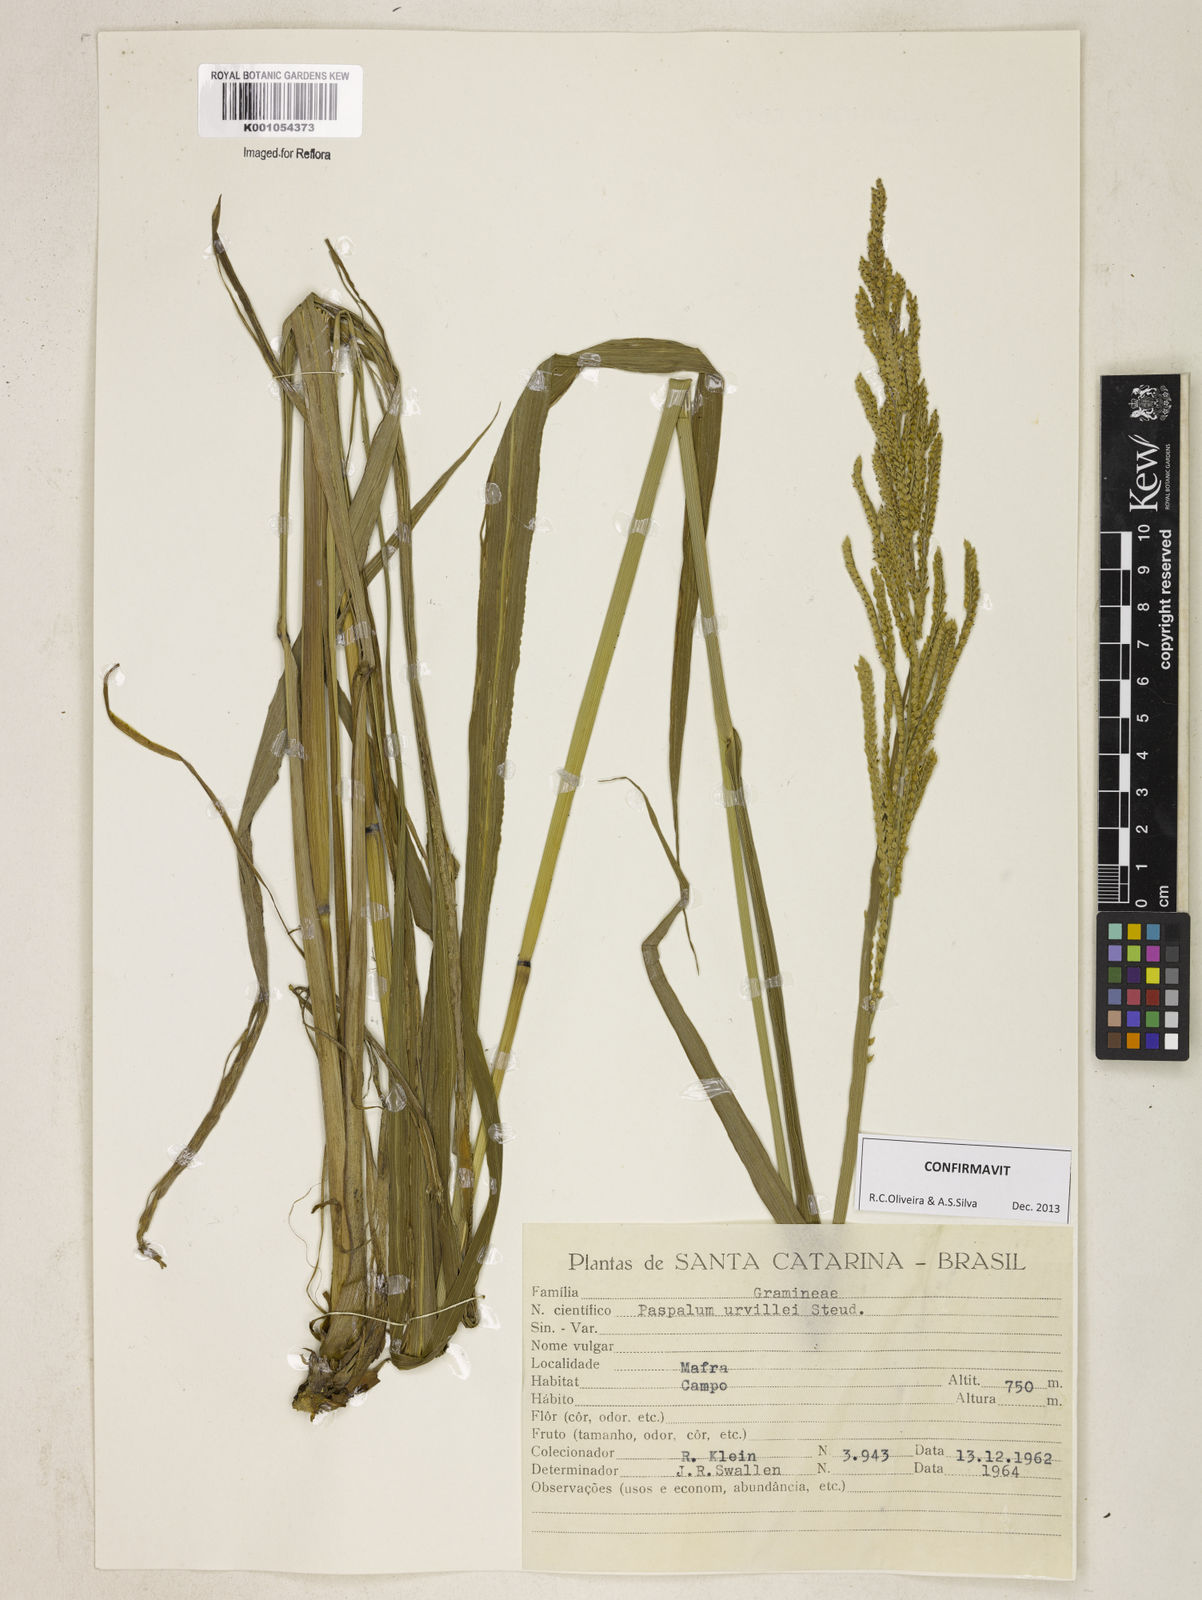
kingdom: Plantae
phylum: Tracheophyta
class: Liliopsida
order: Poales
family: Poaceae
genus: Paspalum
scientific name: Paspalum urvillei
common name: Vasey's grass
